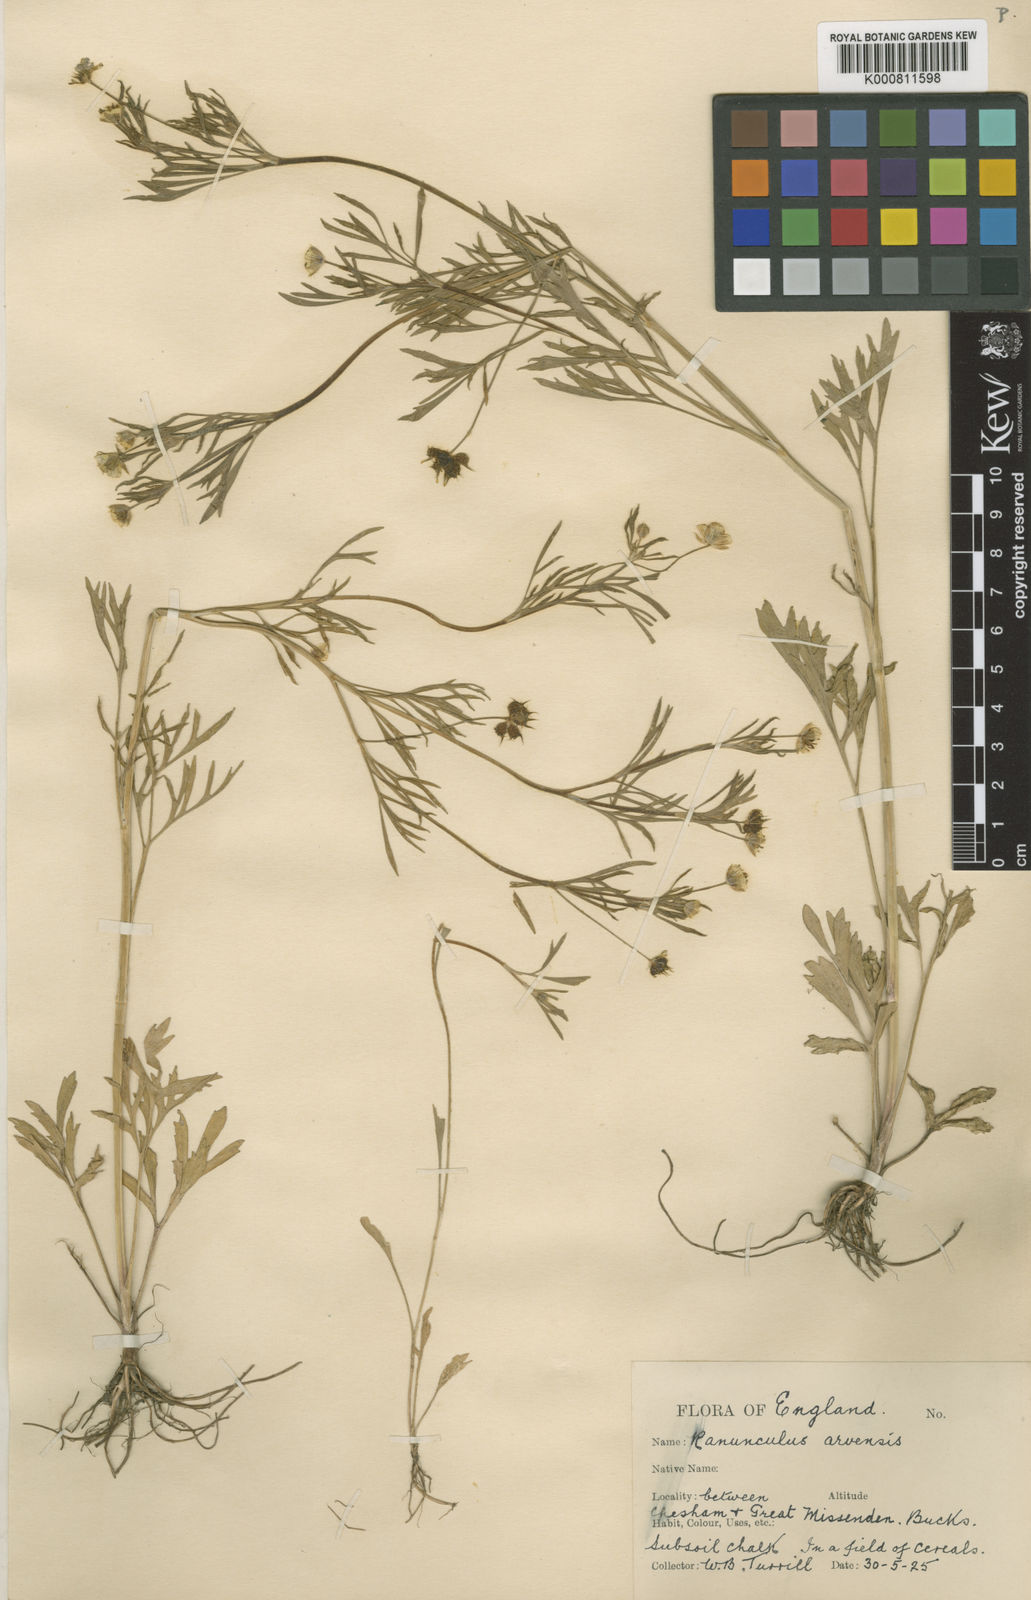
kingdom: Plantae
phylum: Tracheophyta
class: Magnoliopsida
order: Ranunculales
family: Ranunculaceae
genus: Ranunculus
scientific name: Ranunculus arvensis
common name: Corn buttercup
